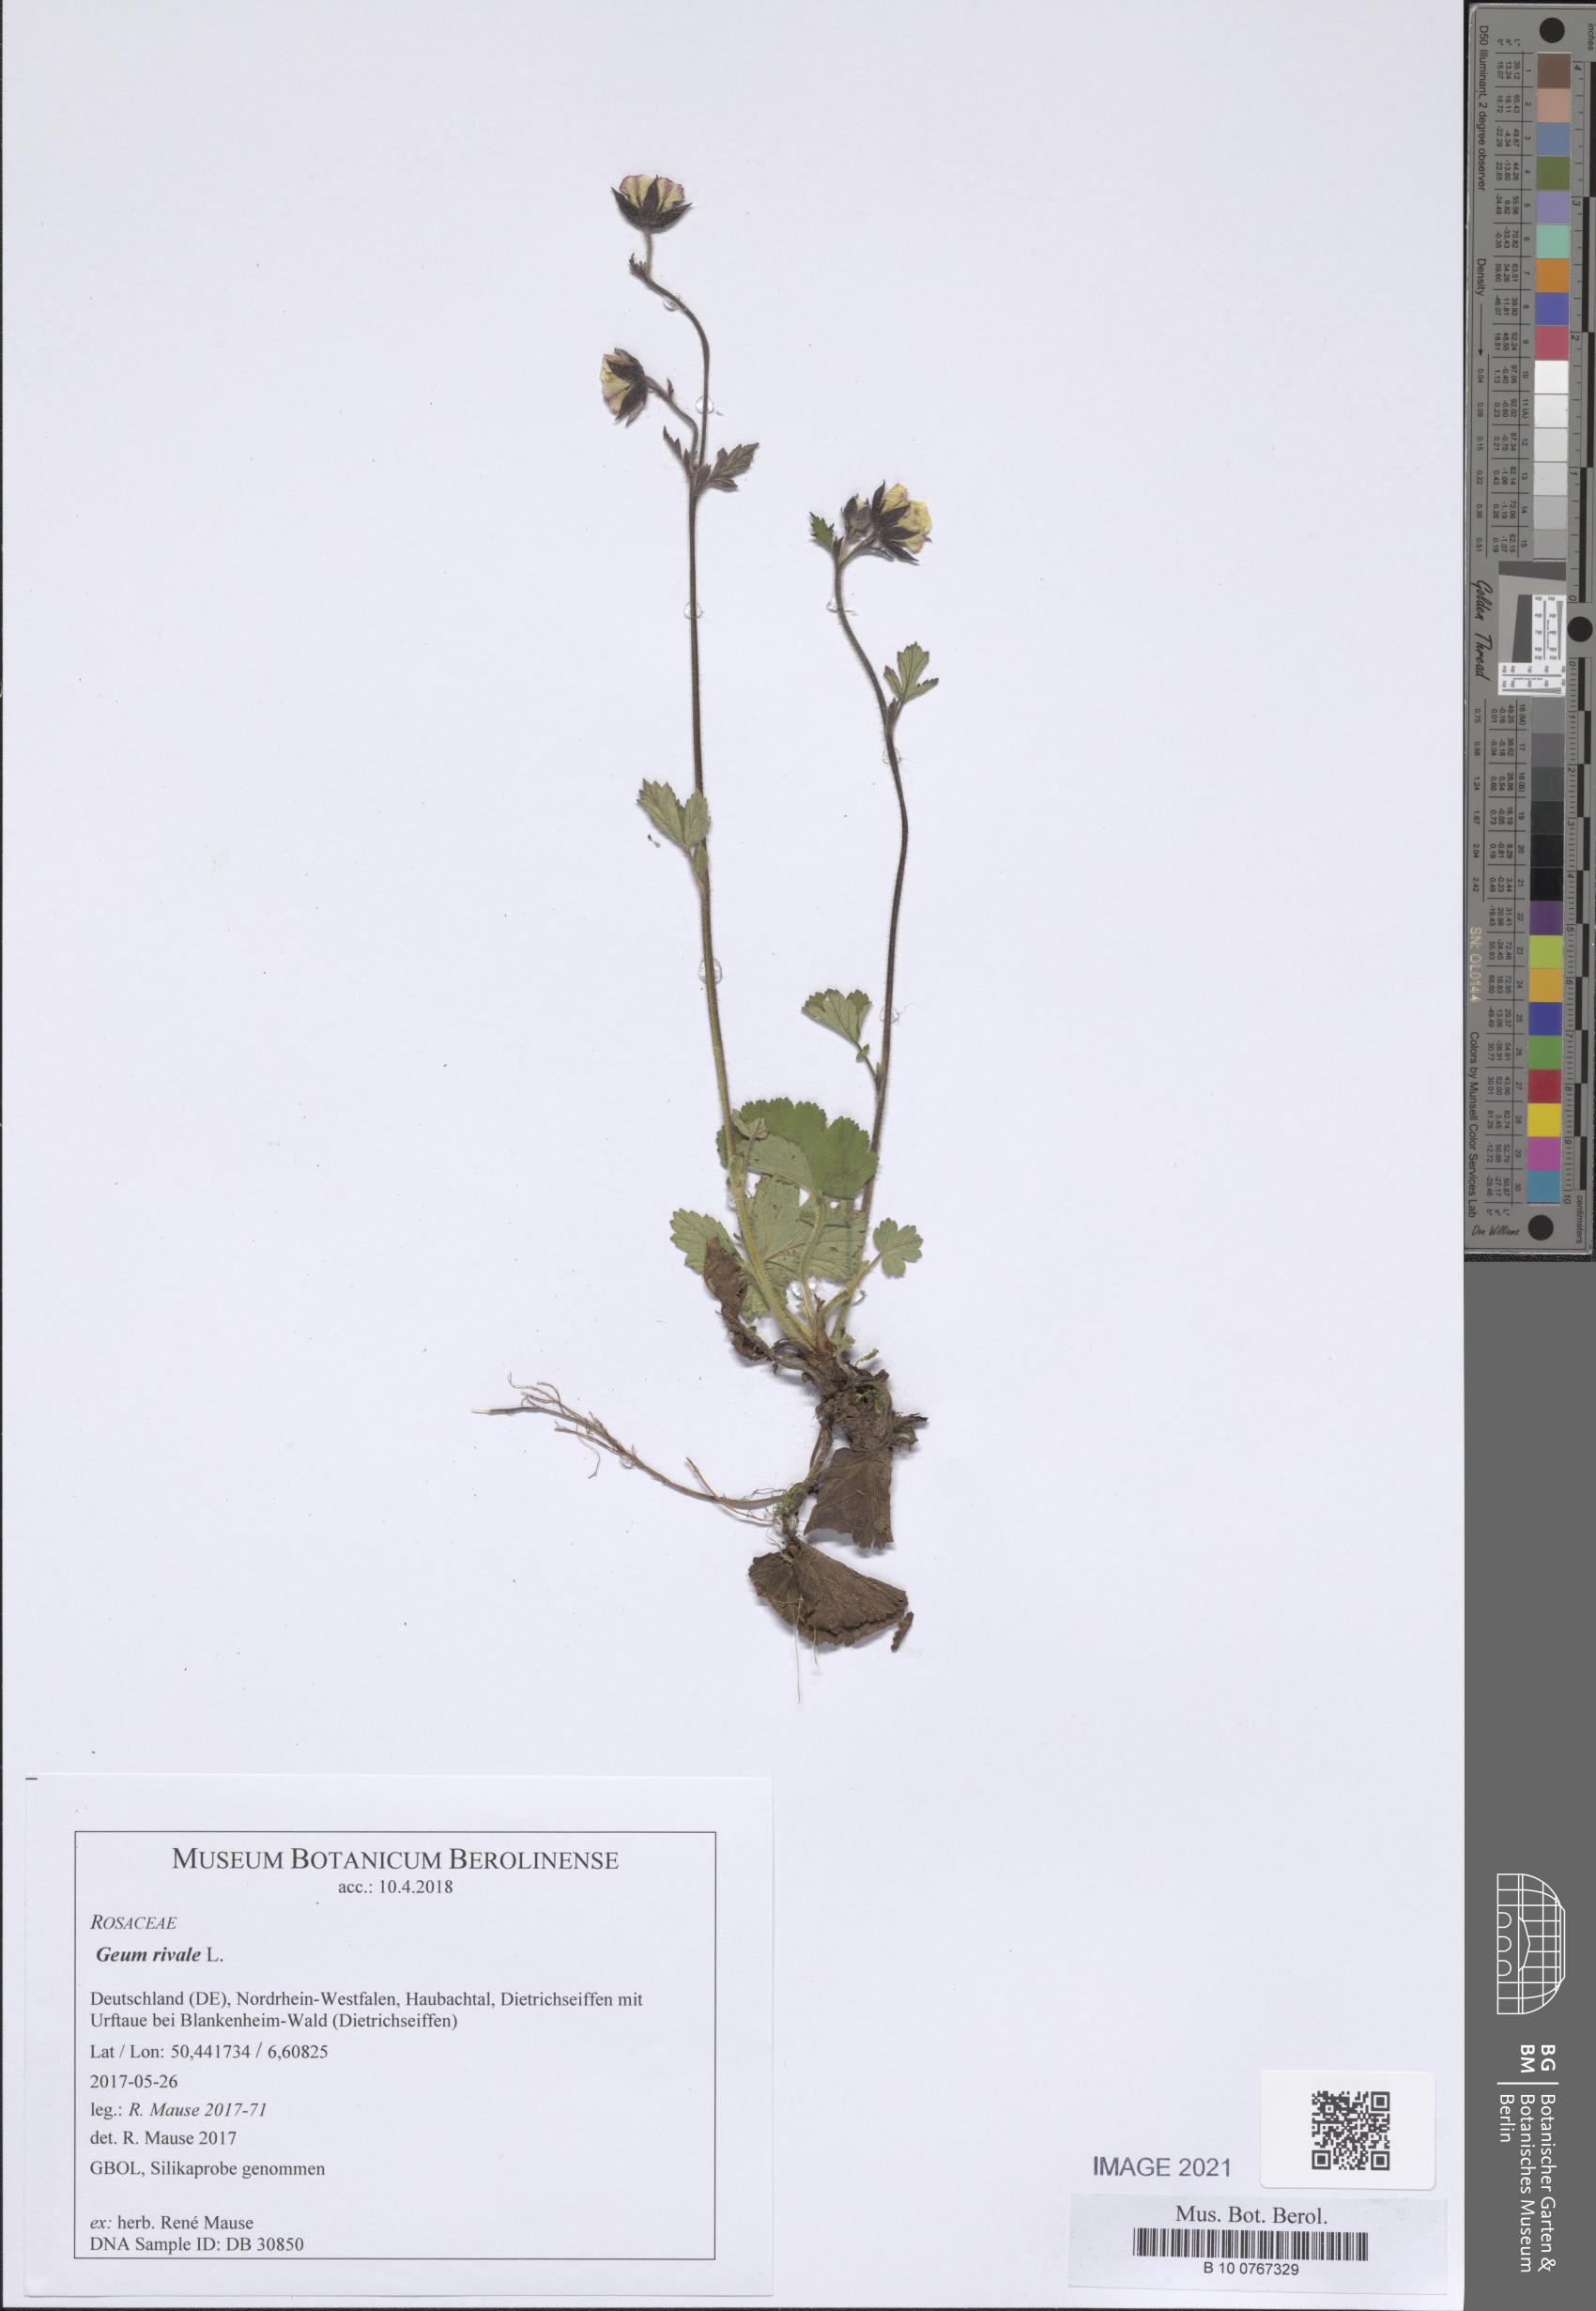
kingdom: Plantae
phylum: Tracheophyta
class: Magnoliopsida
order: Rosales
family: Rosaceae
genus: Geum
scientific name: Geum rivale
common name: Water avens
